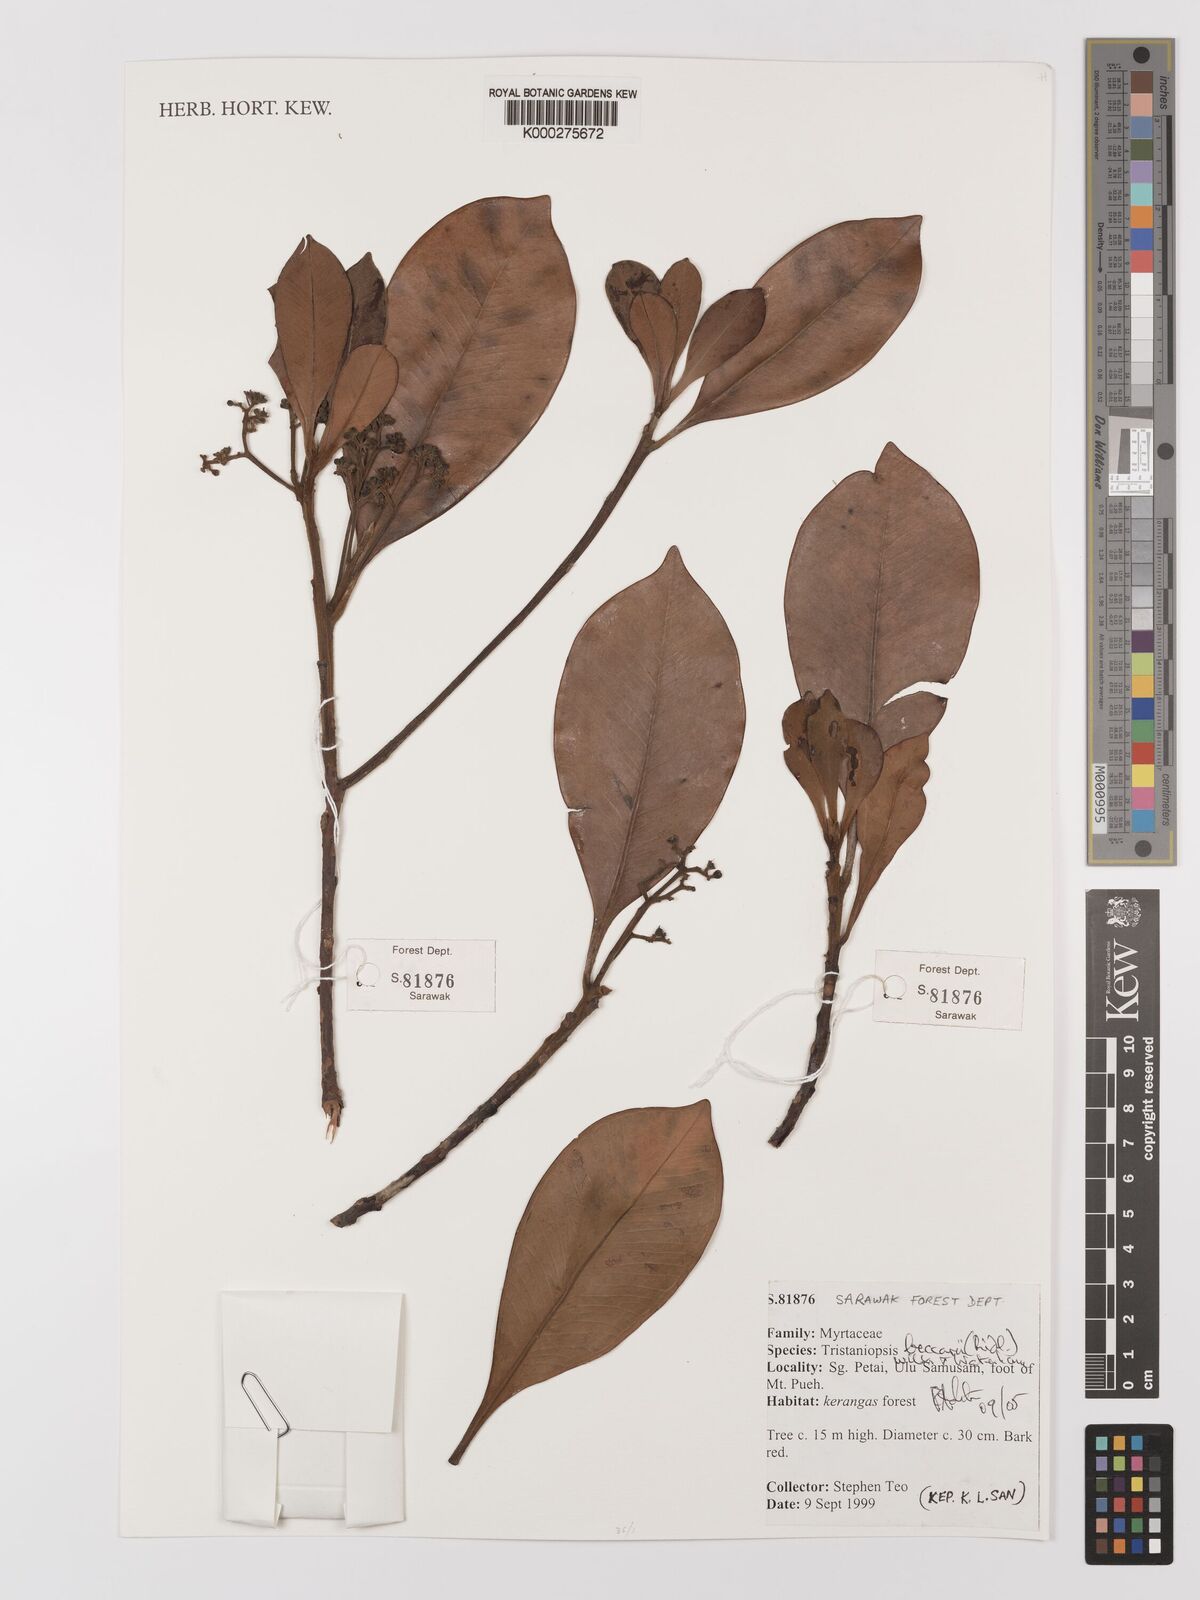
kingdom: Plantae
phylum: Tracheophyta
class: Magnoliopsida
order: Myrtales
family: Myrtaceae
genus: Tristaniopsis
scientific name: Tristaniopsis beccarii
